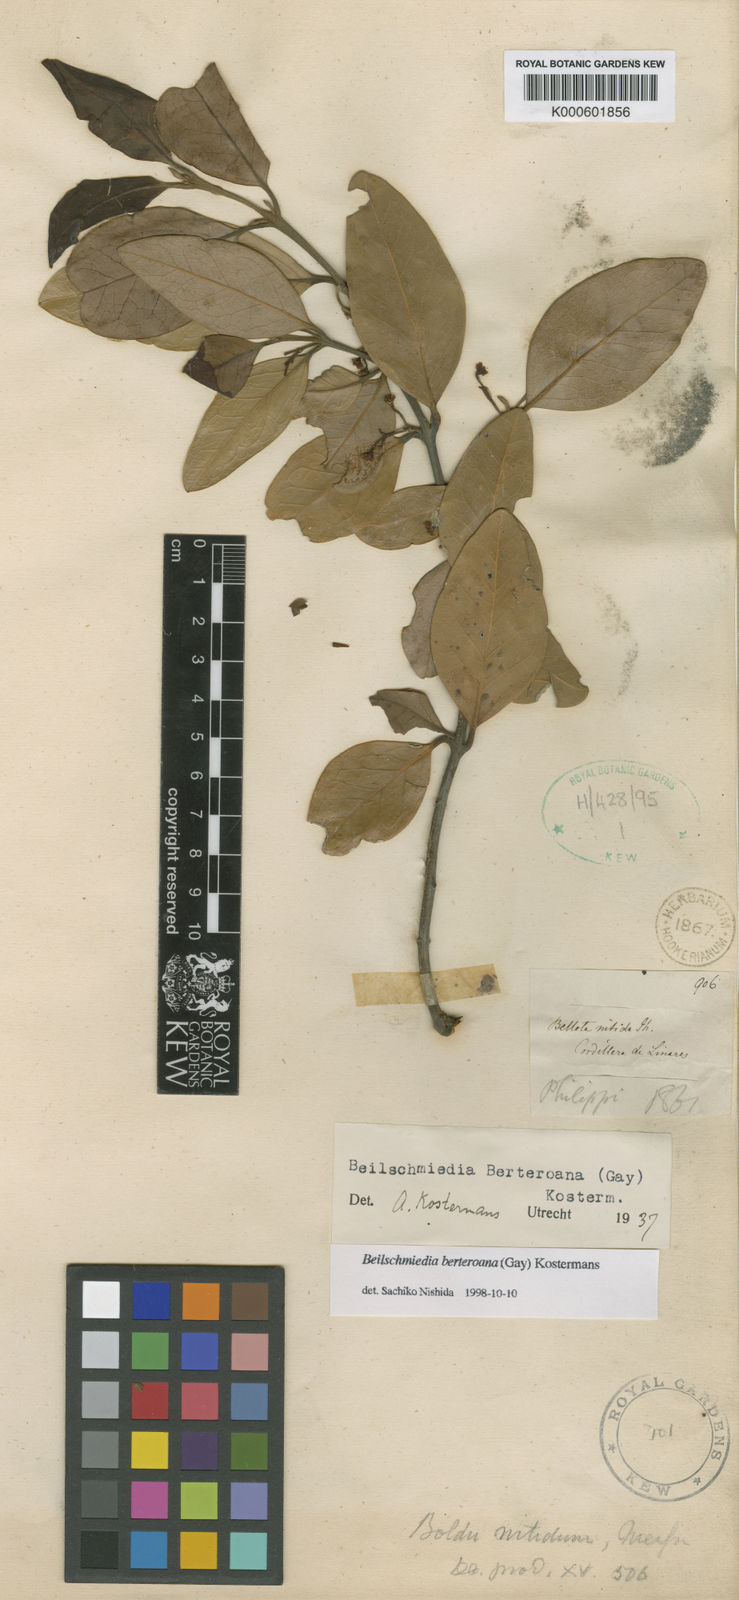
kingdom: Plantae
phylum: Tracheophyta
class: Magnoliopsida
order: Laurales
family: Lauraceae
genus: Beilschmiedia
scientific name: Beilschmiedia berteroana
